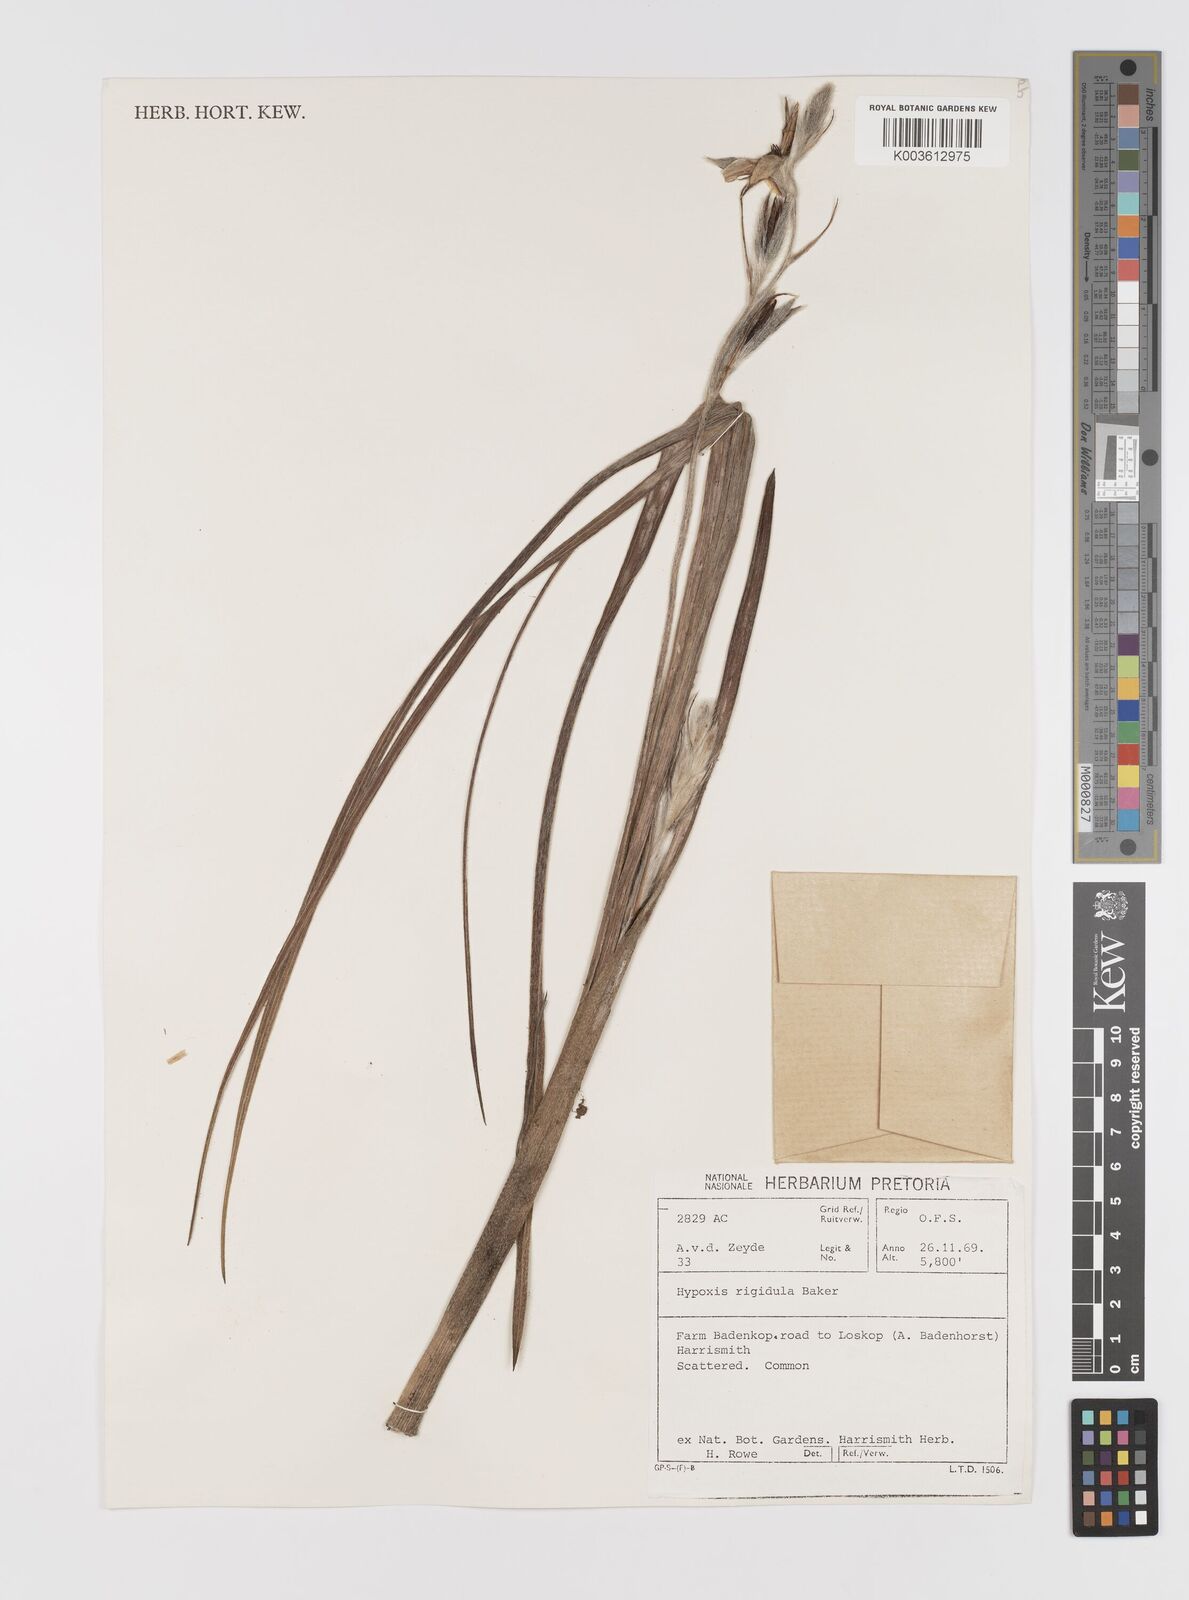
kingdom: Plantae
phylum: Tracheophyta
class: Liliopsida
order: Asparagales
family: Hypoxidaceae
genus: Hypoxis
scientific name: Hypoxis rigidula
